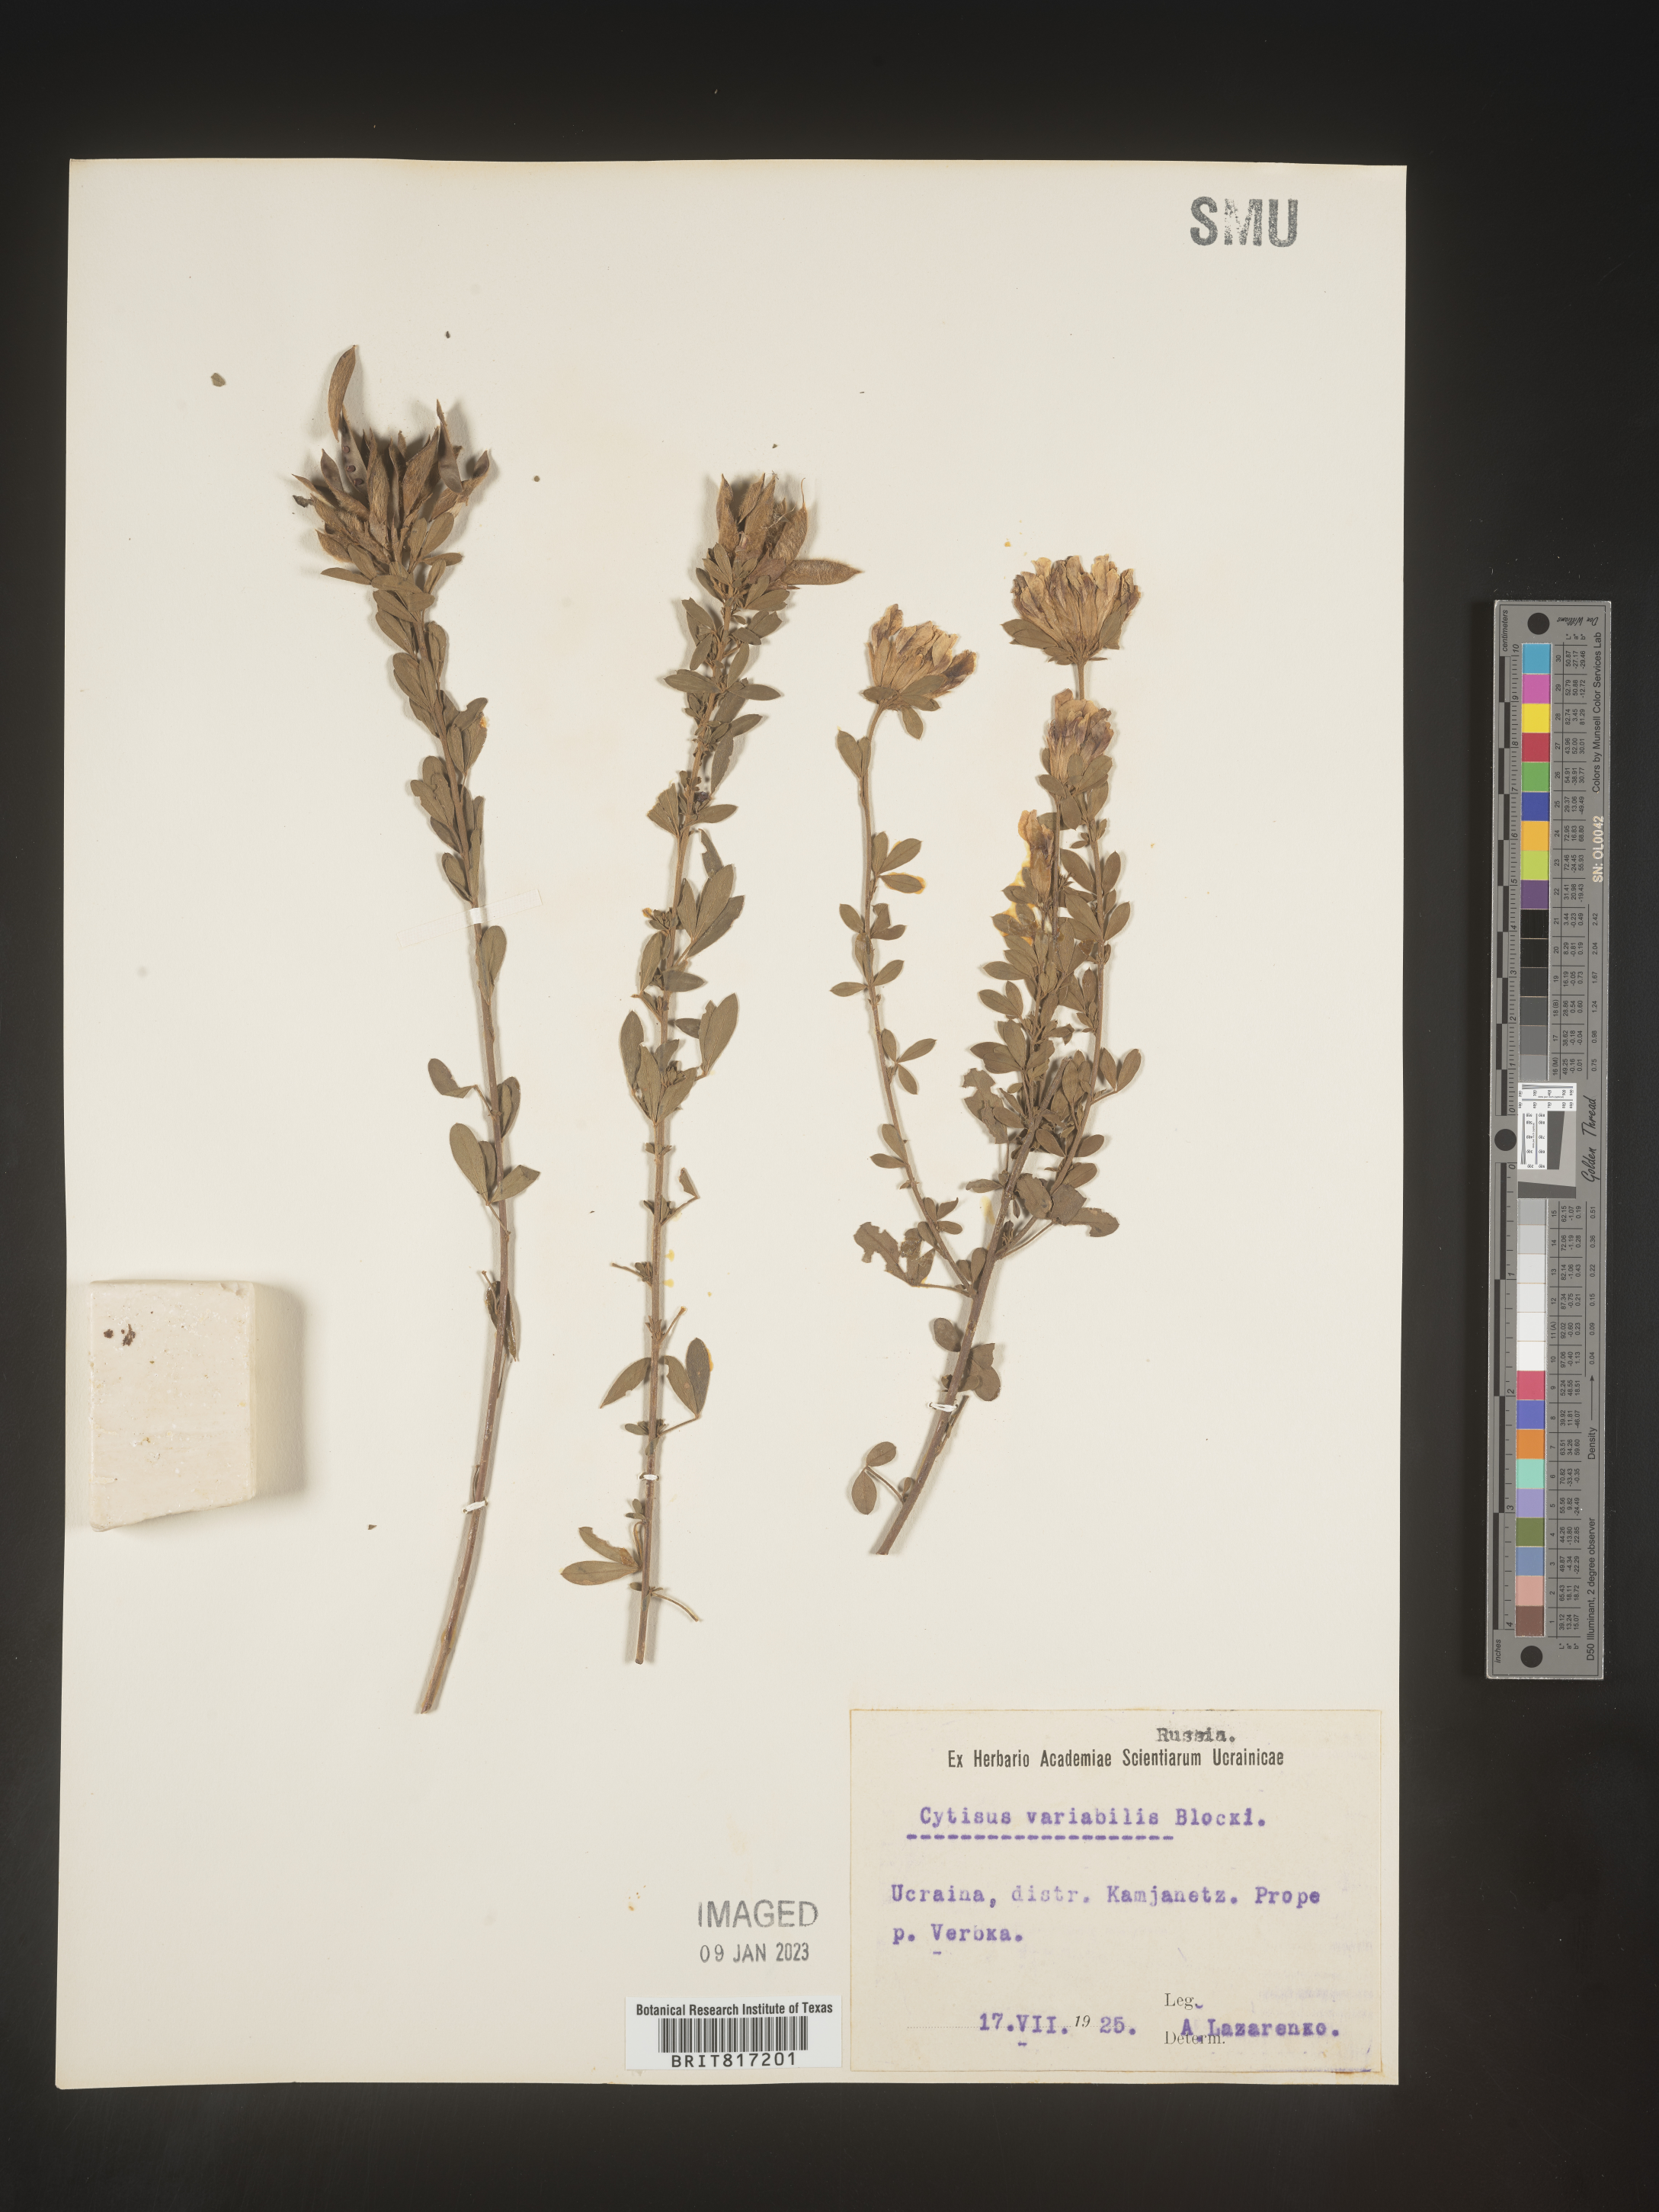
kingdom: Plantae
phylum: Tracheophyta
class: Magnoliopsida
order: Fabales
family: Fabaceae
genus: Cytisus
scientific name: Cytisus
